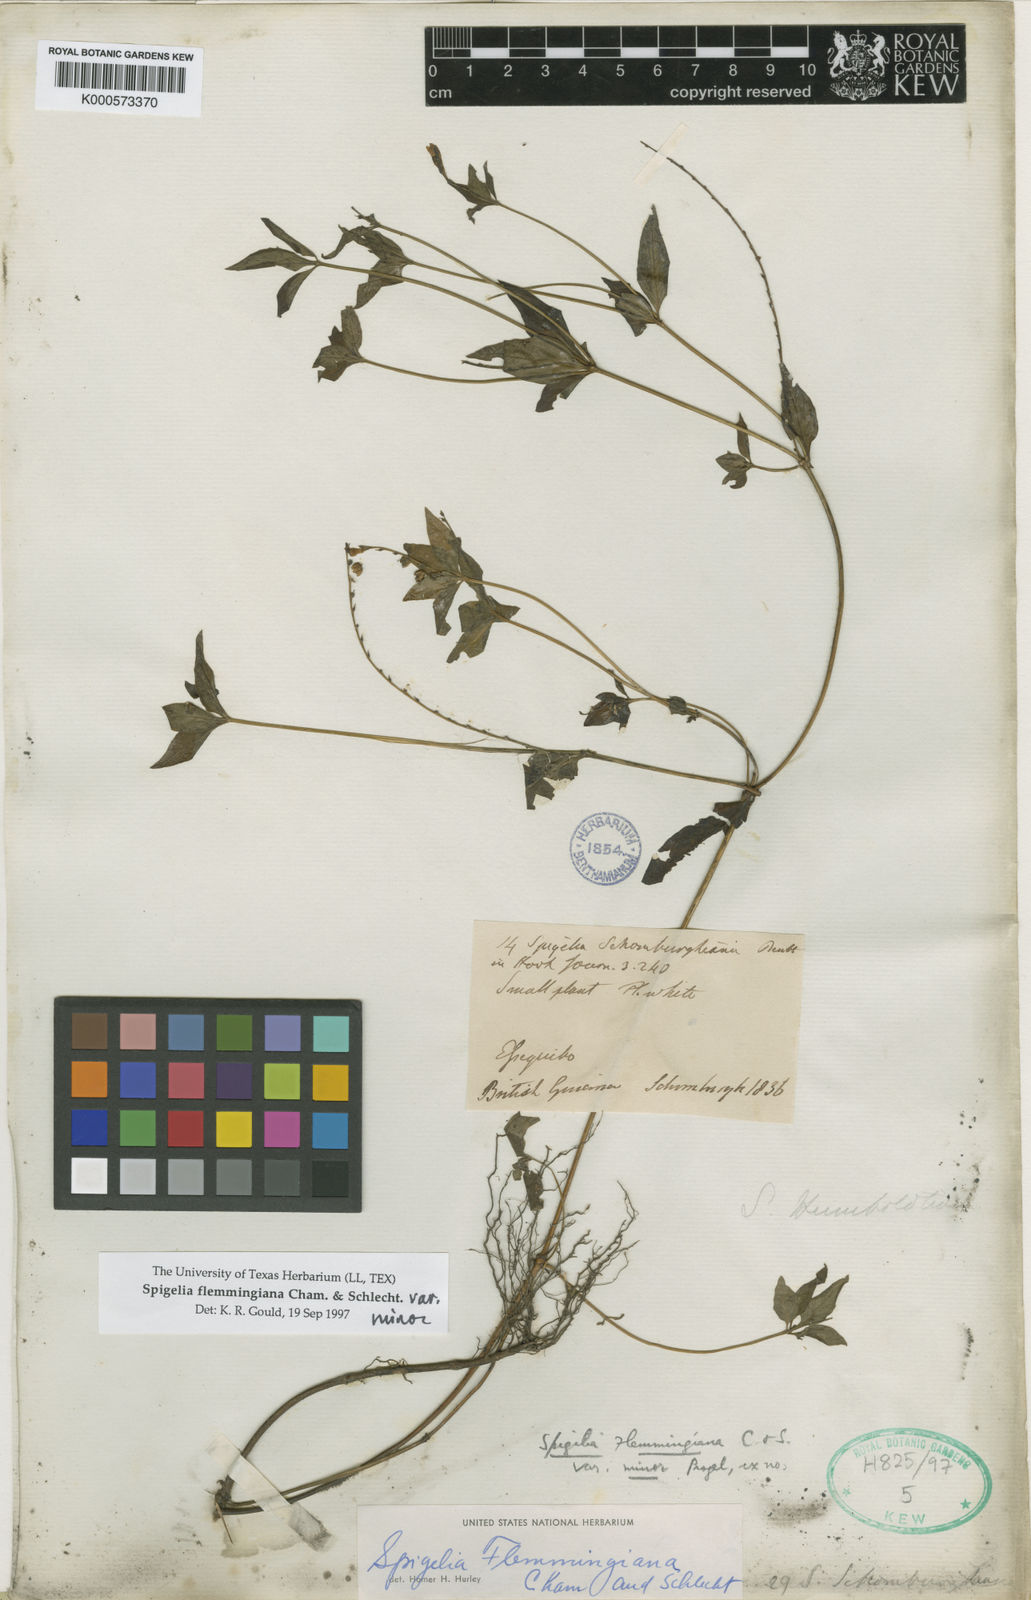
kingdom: Plantae
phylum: Tracheophyta
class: Magnoliopsida
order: Gentianales
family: Loganiaceae
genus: Spigelia
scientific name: Spigelia flemmingiana
